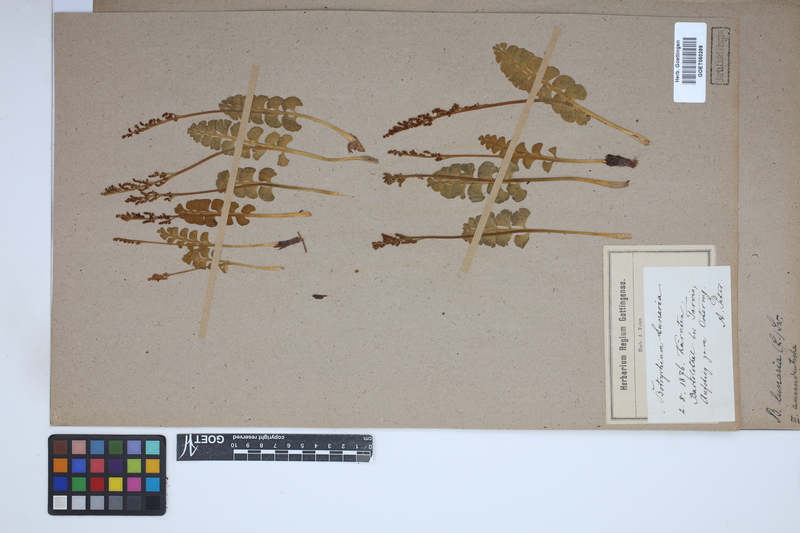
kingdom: Plantae
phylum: Tracheophyta
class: Polypodiopsida
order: Ophioglossales
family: Ophioglossaceae
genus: Botrychium
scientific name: Botrychium lunaria
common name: Moonwort
